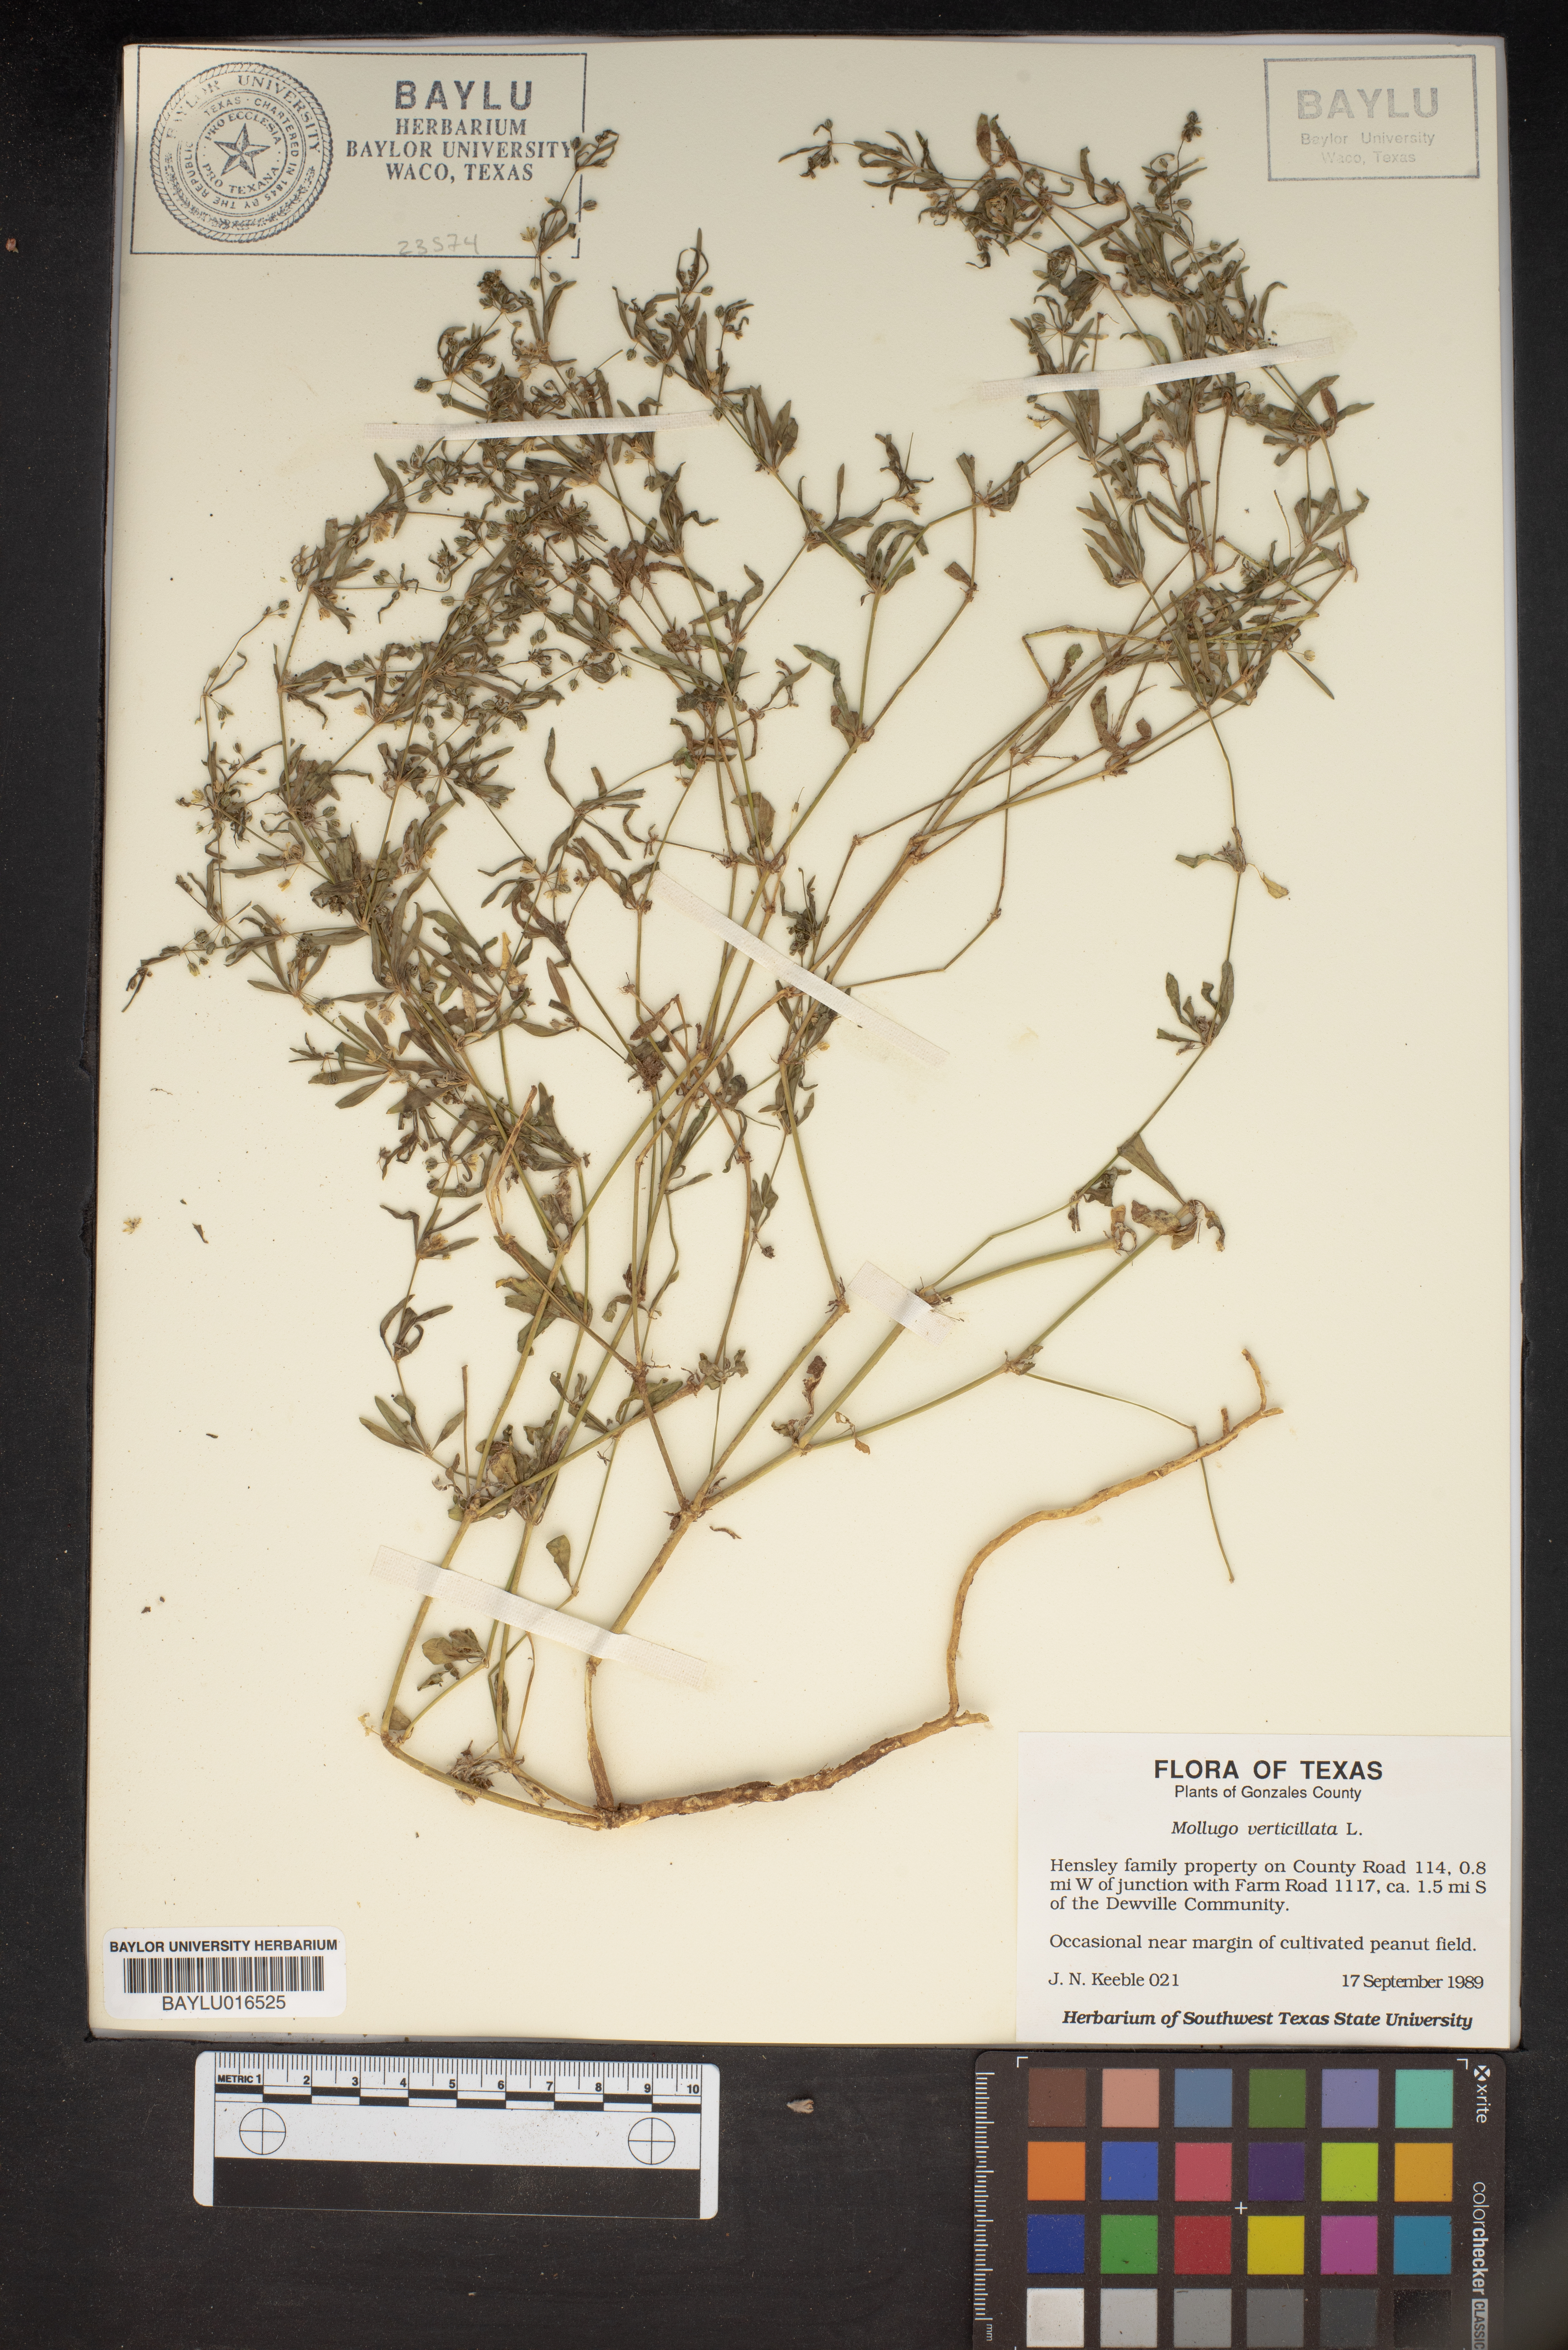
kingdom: Plantae
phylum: Tracheophyta
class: Magnoliopsida
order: Caryophyllales
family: Molluginaceae
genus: Mollugo
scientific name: Mollugo verticillata
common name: Green carpetweed
